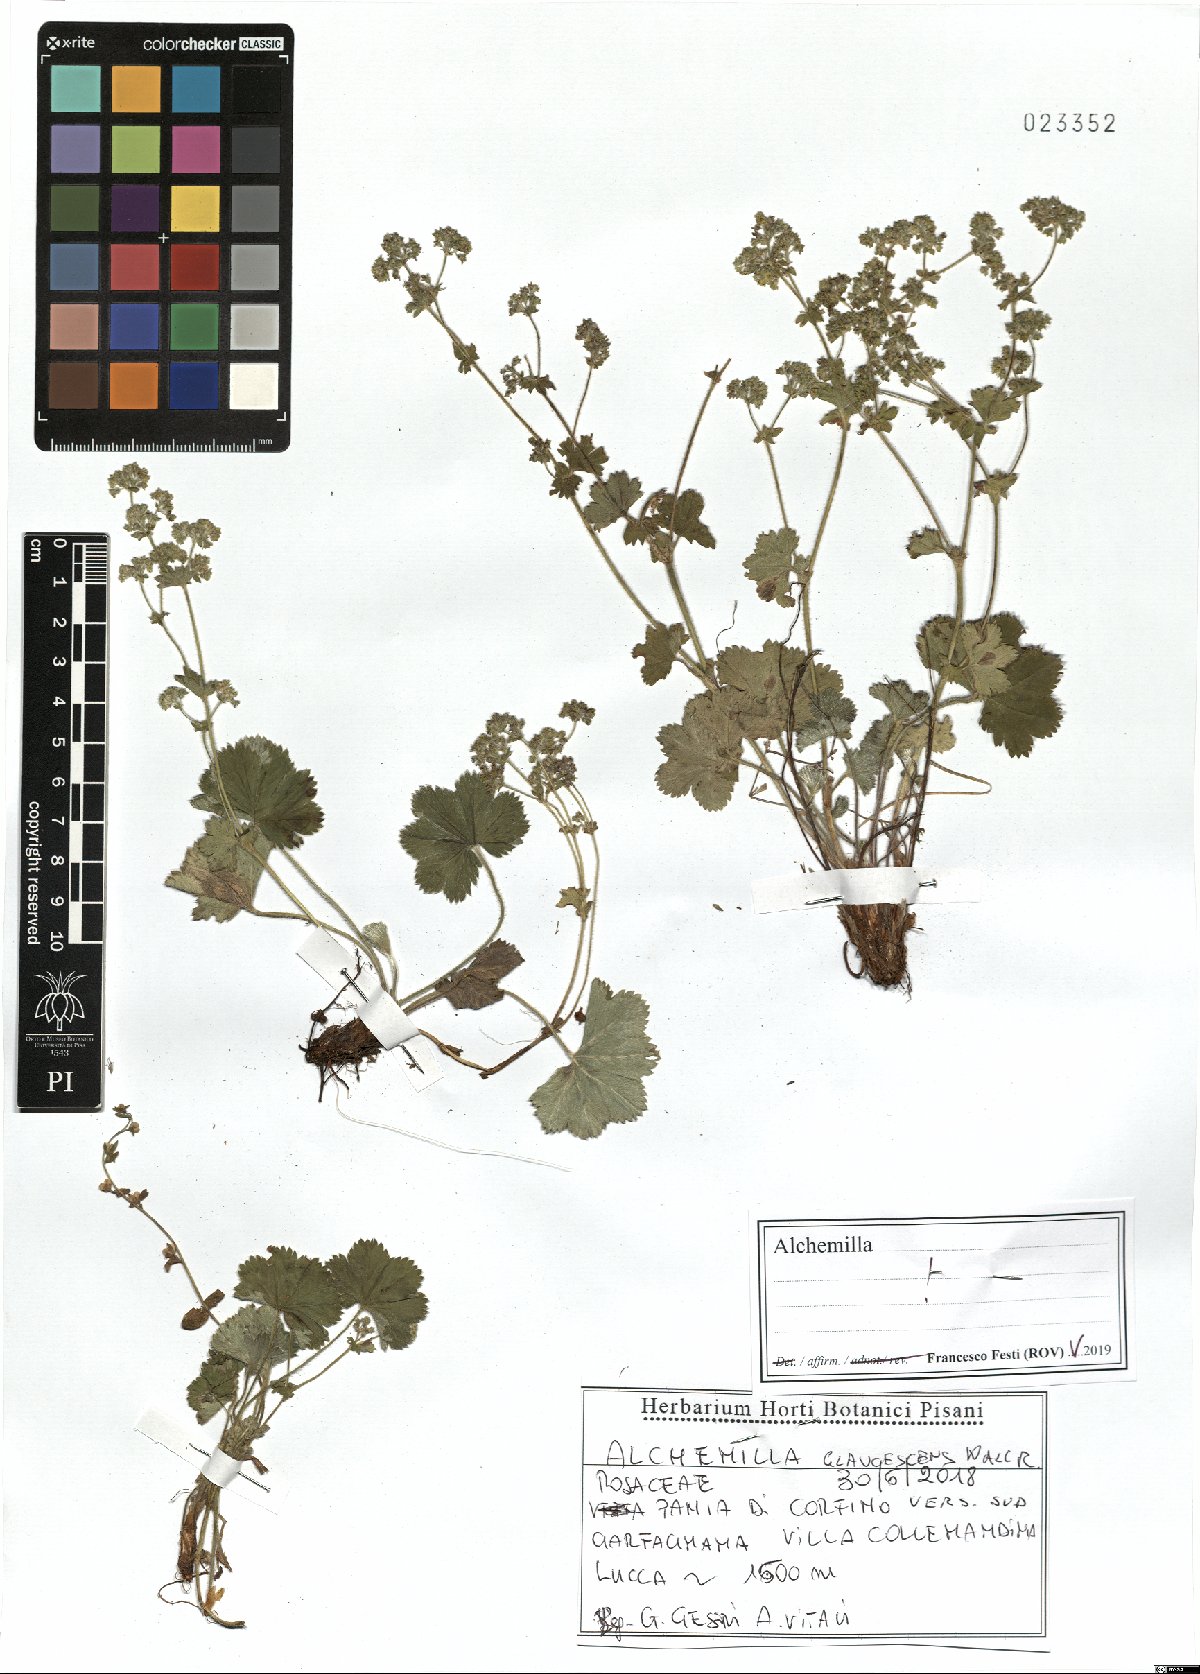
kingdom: Plantae
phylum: Tracheophyta
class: Magnoliopsida
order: Rosales
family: Rosaceae
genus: Alchemilla
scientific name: Alchemilla glaucescens
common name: Silky lady's mantle
